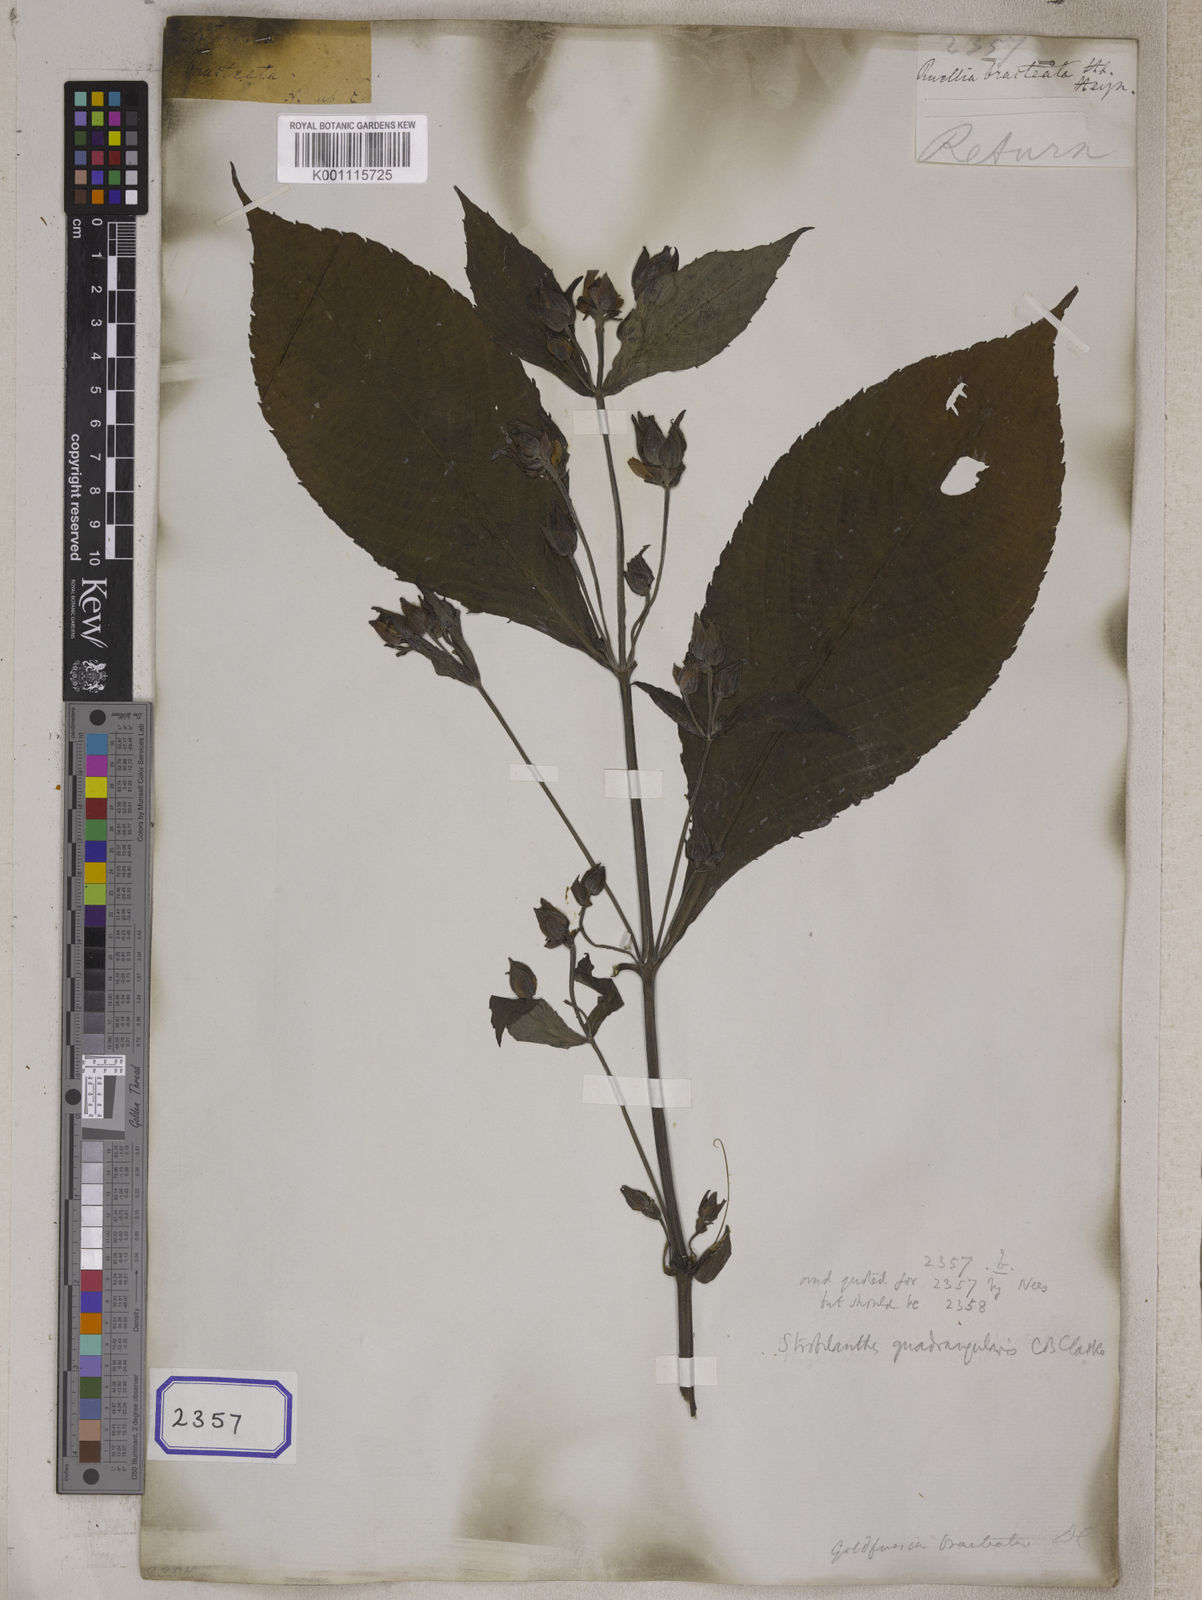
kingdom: Plantae
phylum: Tracheophyta
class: Magnoliopsida
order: Lamiales
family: Acanthaceae
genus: Strobilanthes
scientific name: Strobilanthes heyneana
